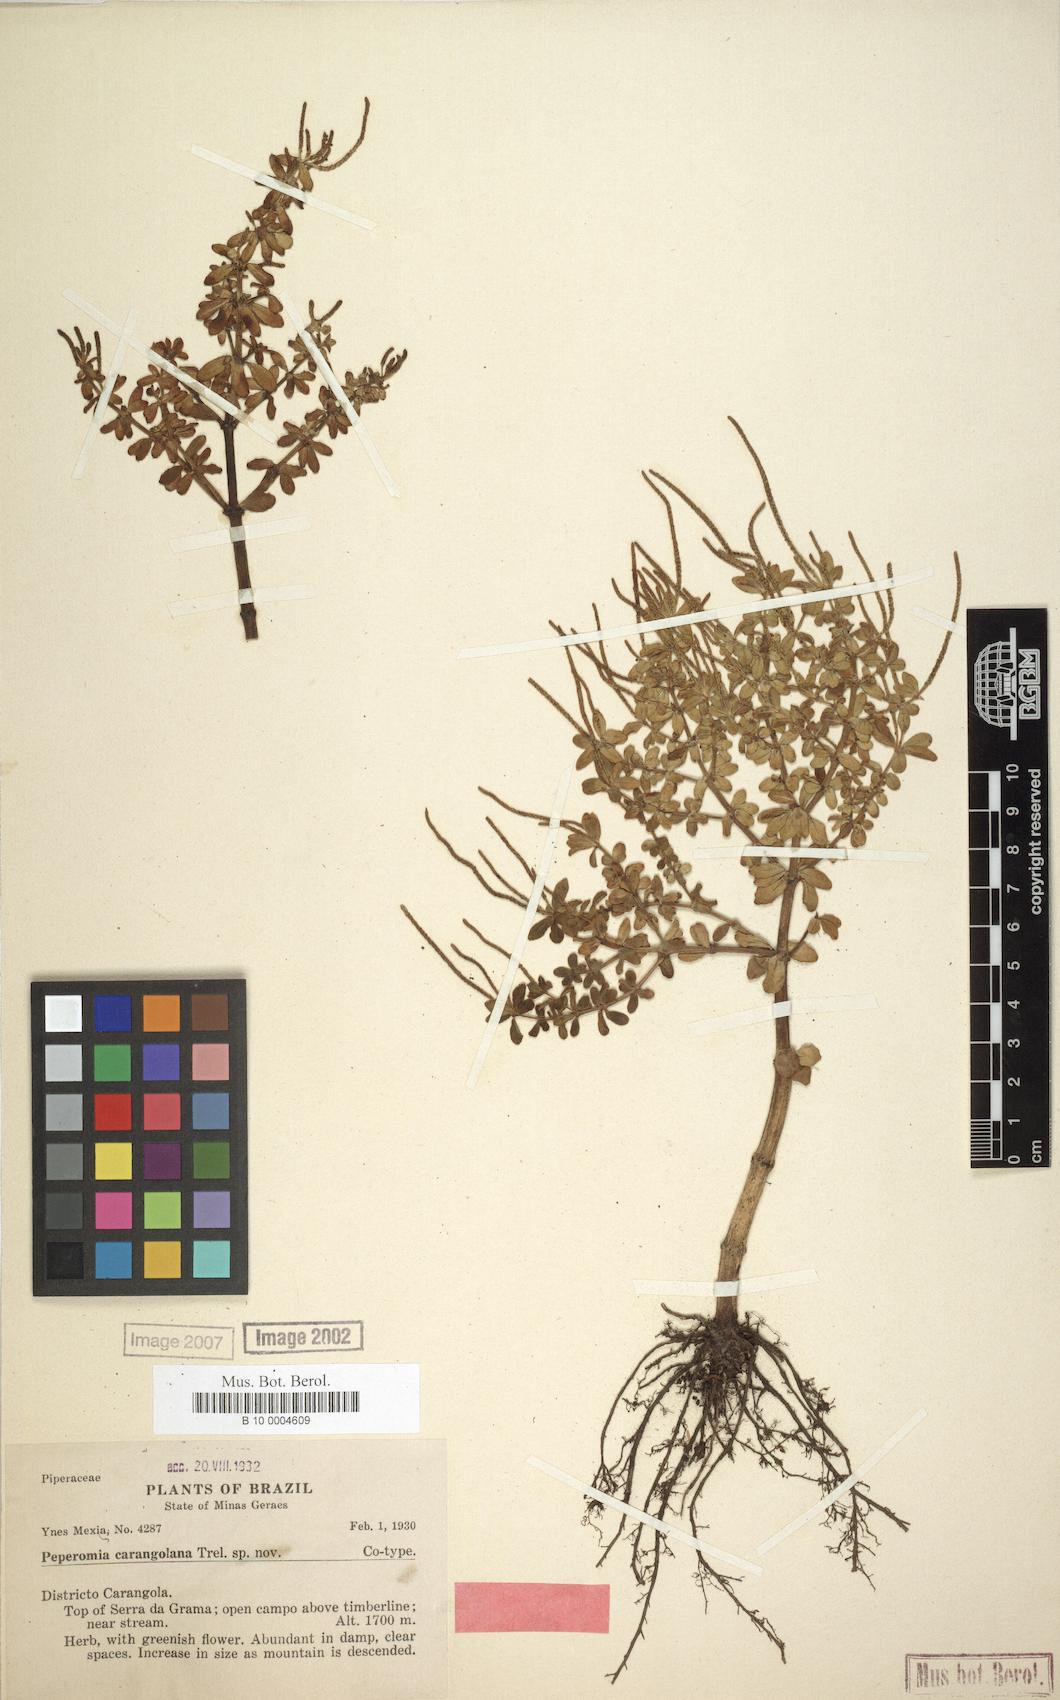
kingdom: Plantae
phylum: Tracheophyta
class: Magnoliopsida
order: Piperales
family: Piperaceae
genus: Peperomia
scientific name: Peperomia
